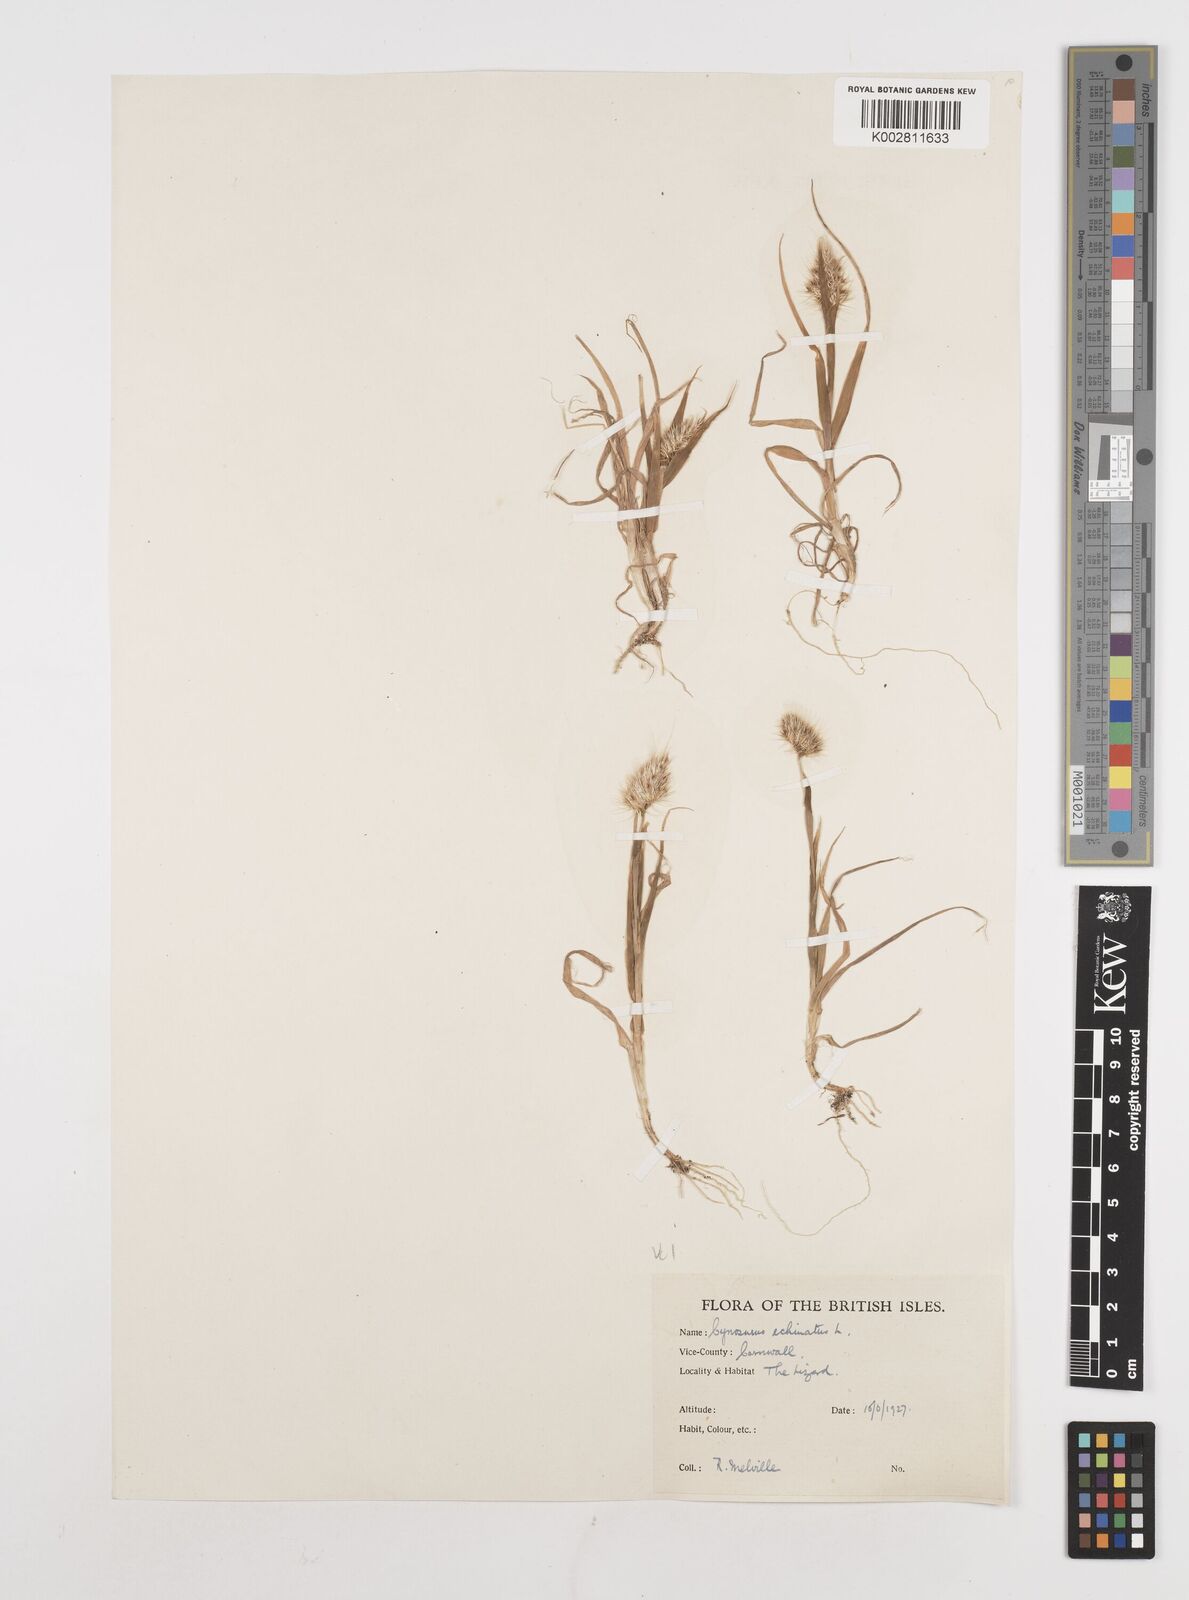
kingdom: Plantae
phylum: Tracheophyta
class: Liliopsida
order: Poales
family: Poaceae
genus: Cynosurus
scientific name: Cynosurus echinatus
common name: Rough dog's-tail
